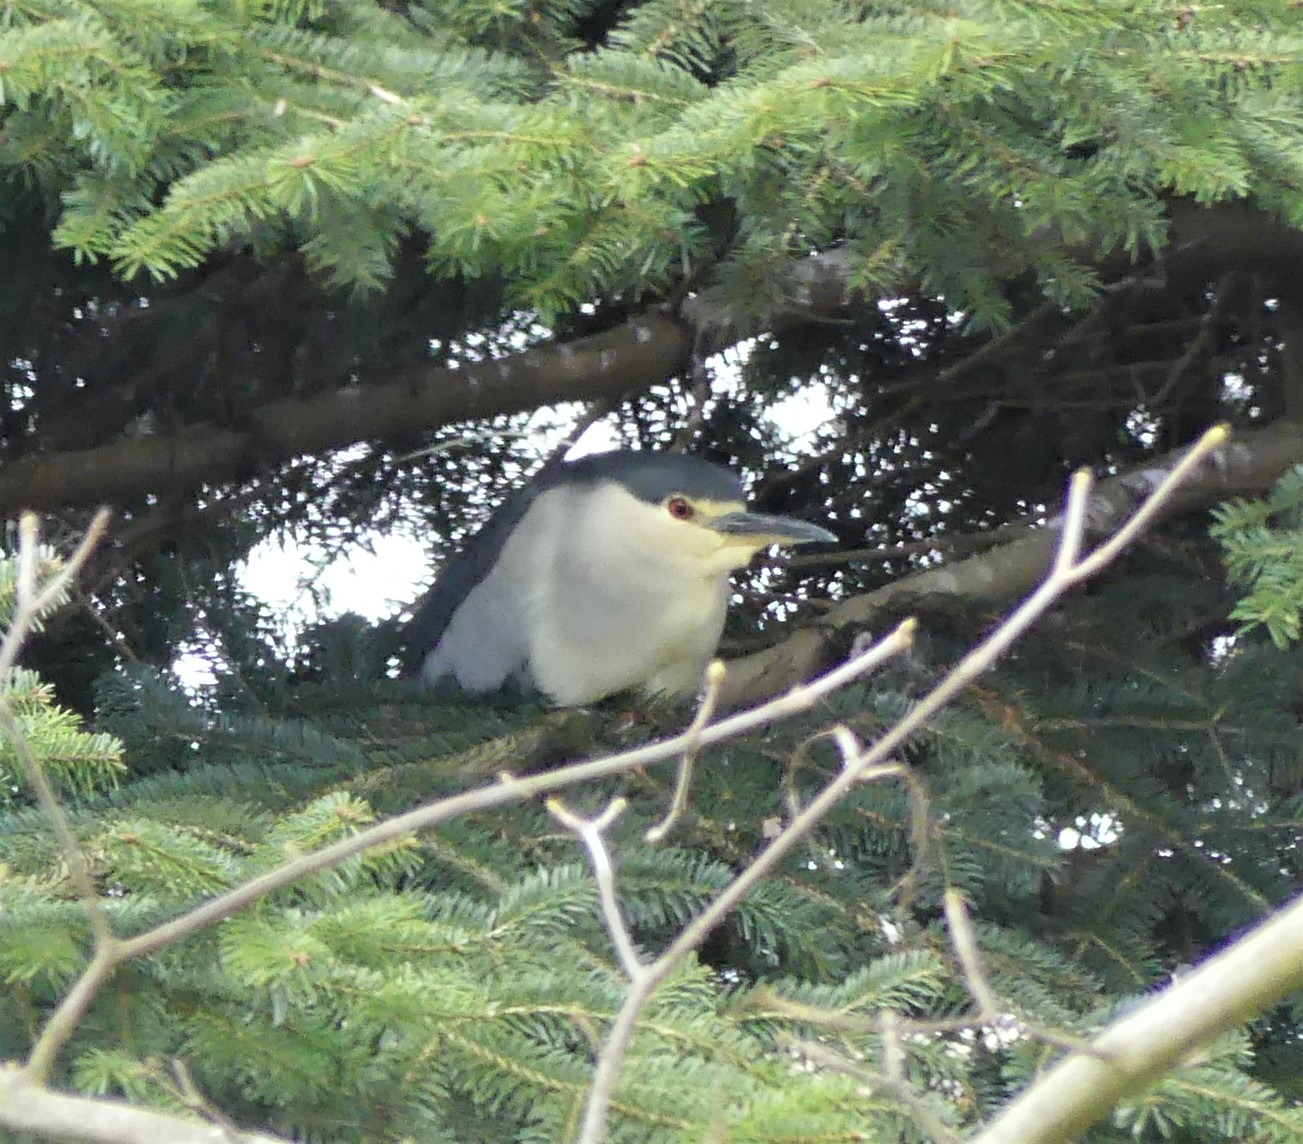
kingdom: Animalia
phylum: Chordata
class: Aves
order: Pelecaniformes
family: Ardeidae
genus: Nycticorax
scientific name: Nycticorax nycticorax
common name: Nathejre
